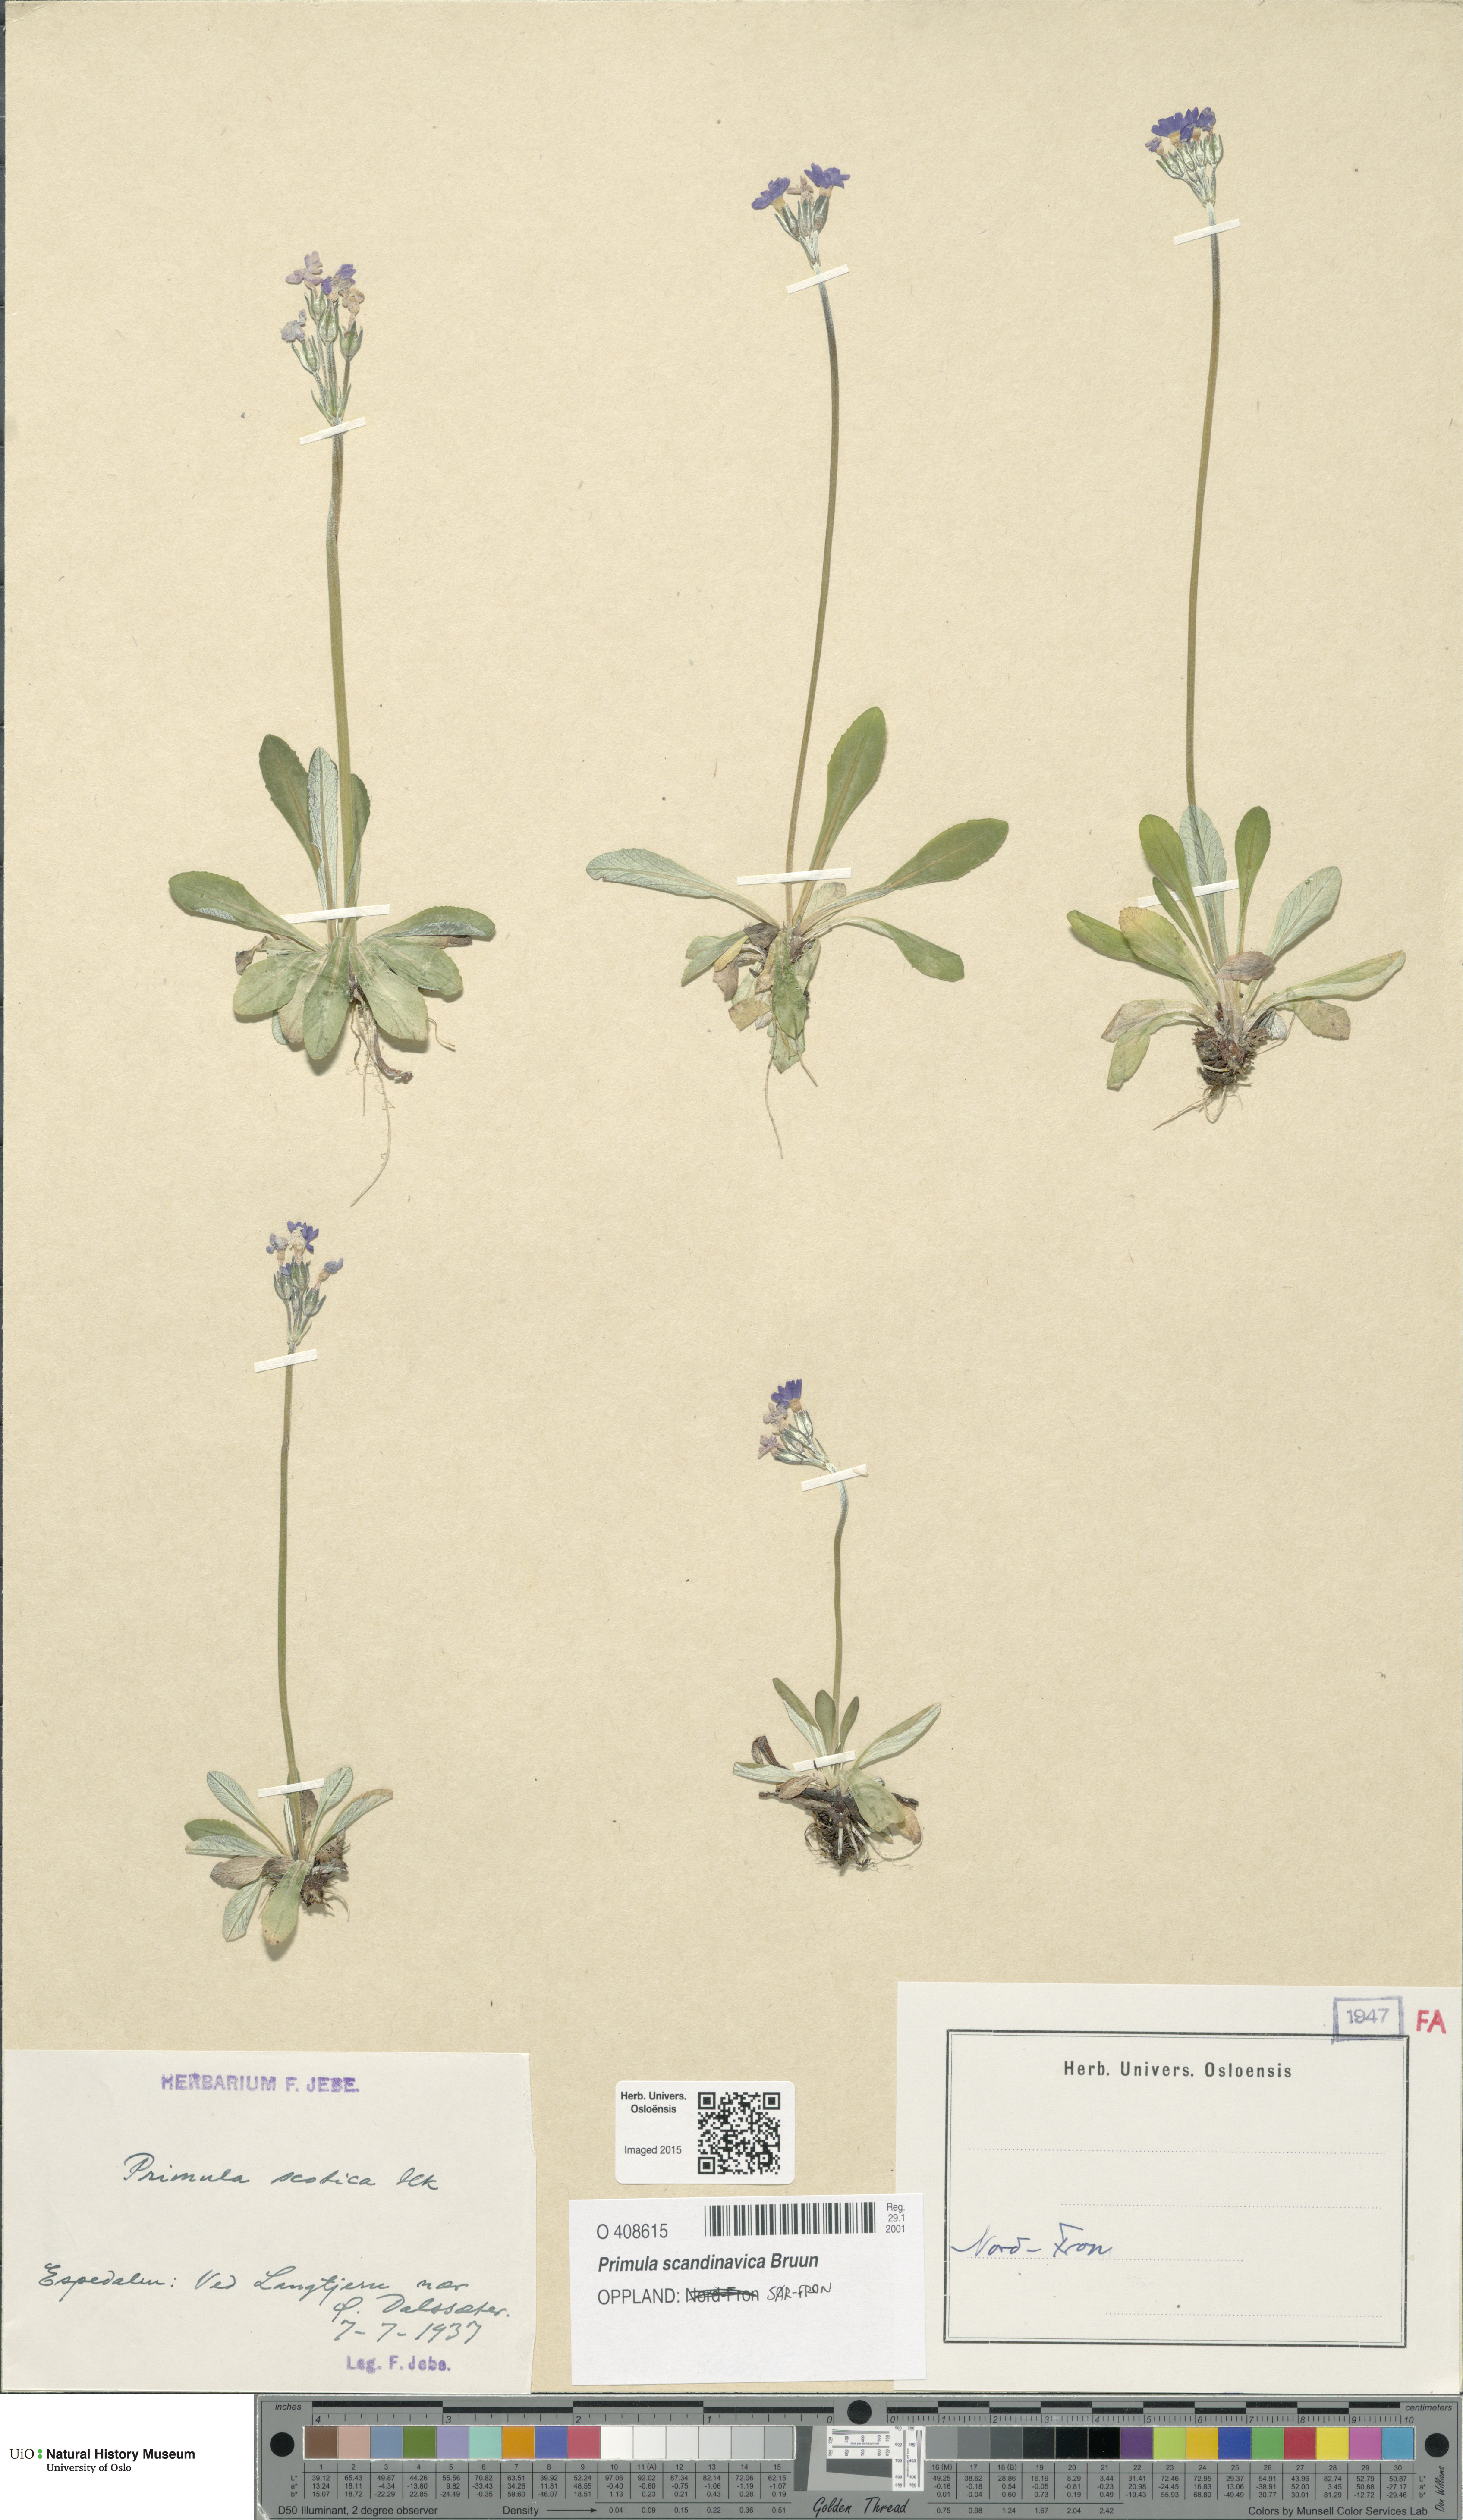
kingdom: Plantae
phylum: Tracheophyta
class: Magnoliopsida
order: Ericales
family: Primulaceae
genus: Primula
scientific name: Primula scandinavica
